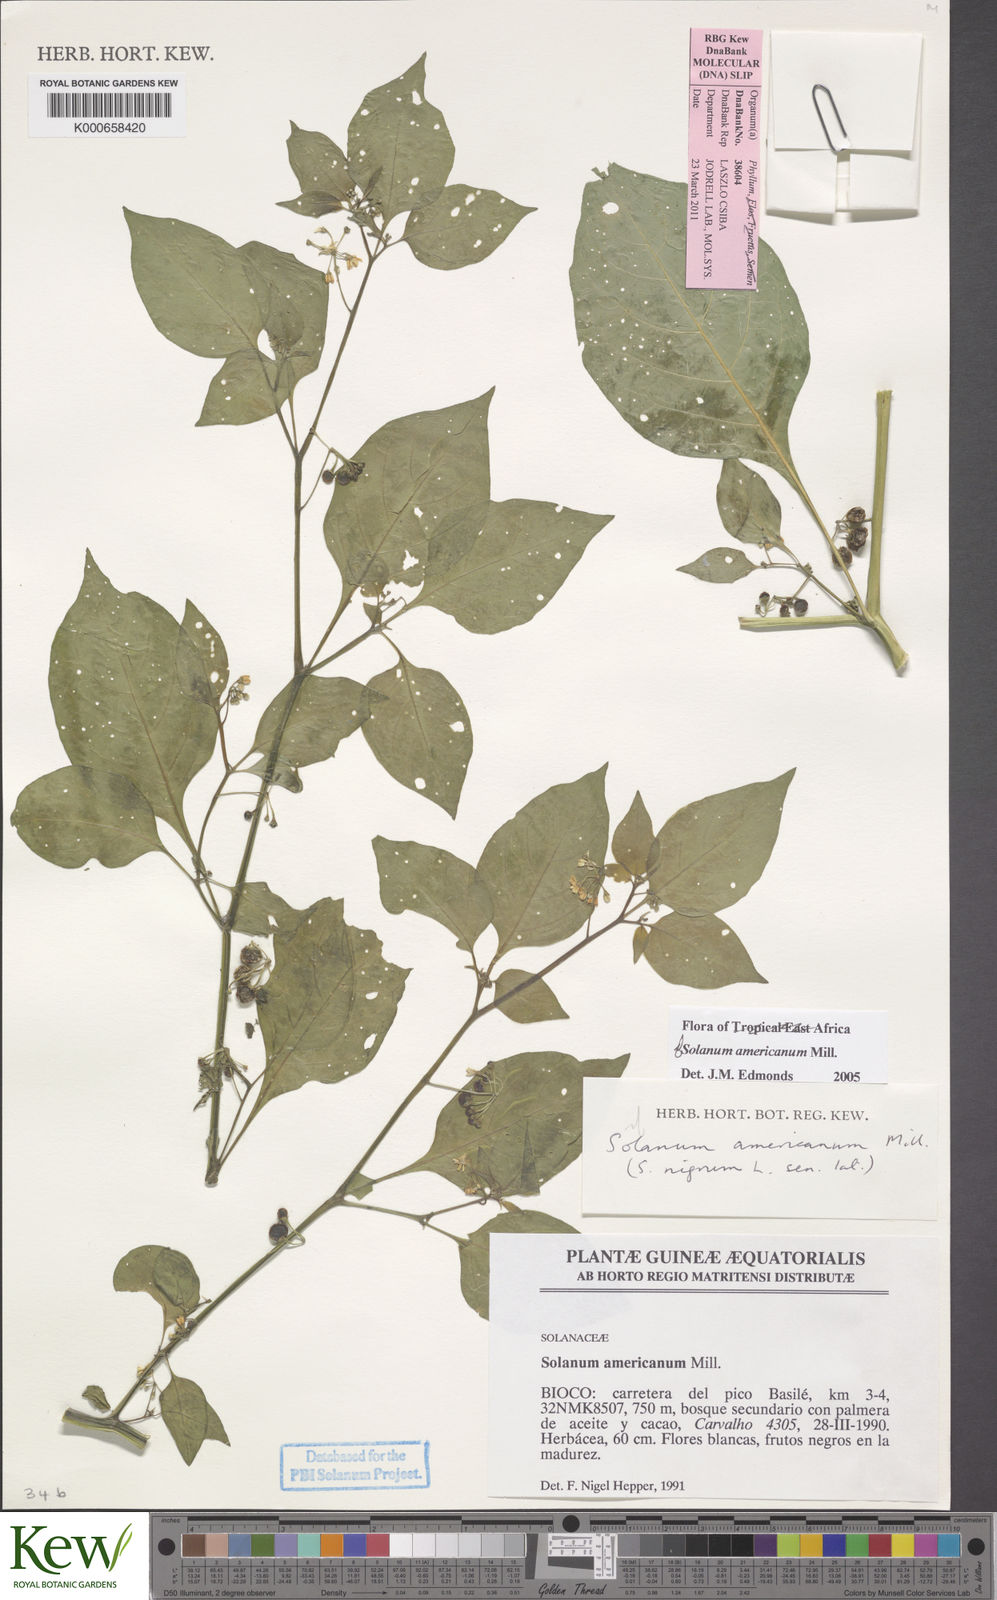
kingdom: Plantae
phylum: Tracheophyta
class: Magnoliopsida
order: Solanales
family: Solanaceae
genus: Solanum
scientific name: Solanum americanum
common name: American black nightshade
